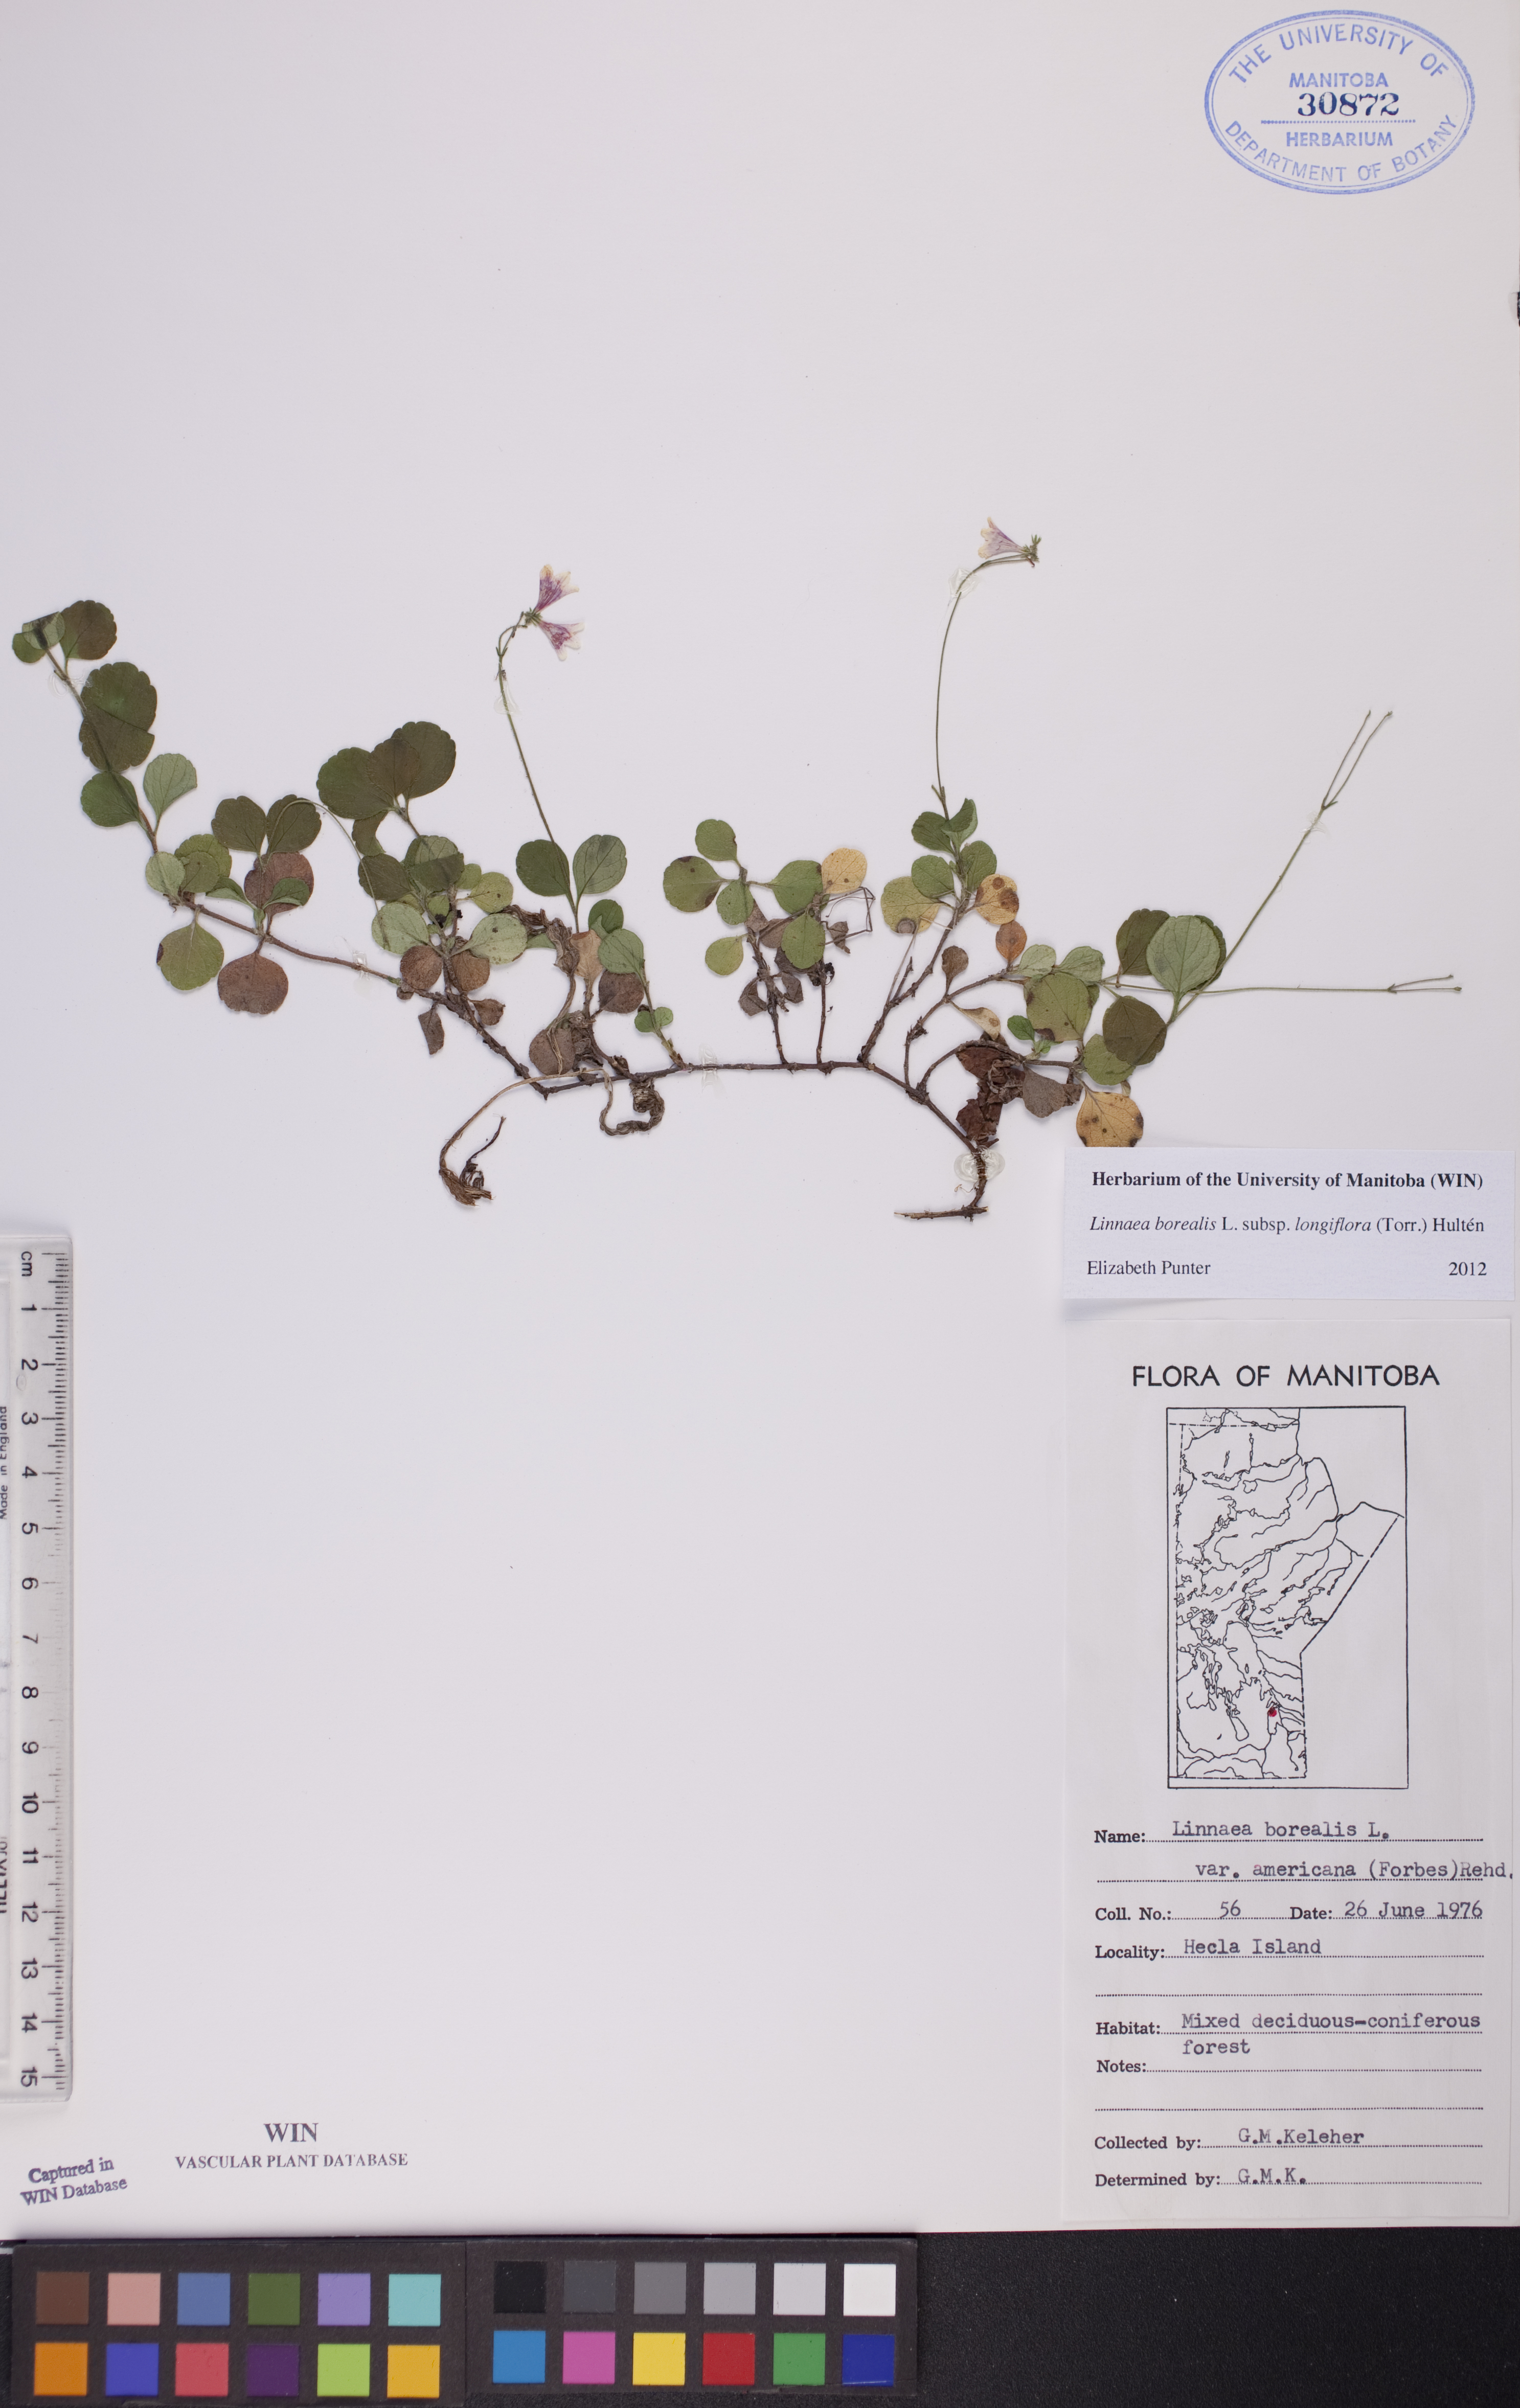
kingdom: Plantae
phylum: Tracheophyta
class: Magnoliopsida
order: Dipsacales
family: Caprifoliaceae
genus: Linnaea
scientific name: Linnaea borealis
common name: Twinflower
